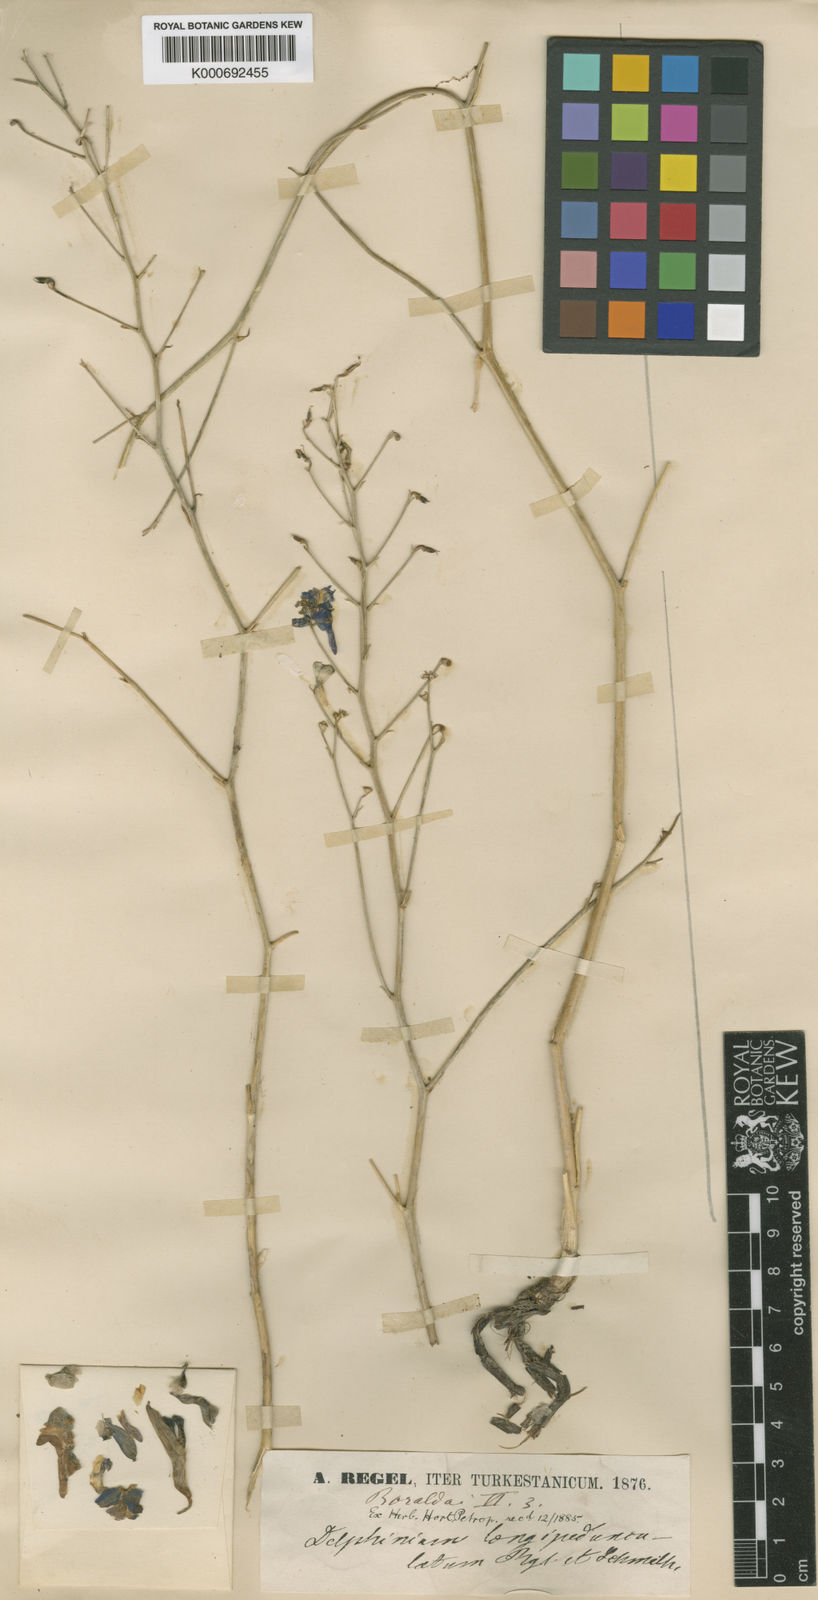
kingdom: Plantae
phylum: Tracheophyta
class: Magnoliopsida
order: Ranunculales
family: Ranunculaceae
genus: Delphinium
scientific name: Delphinium longipedunculatum
